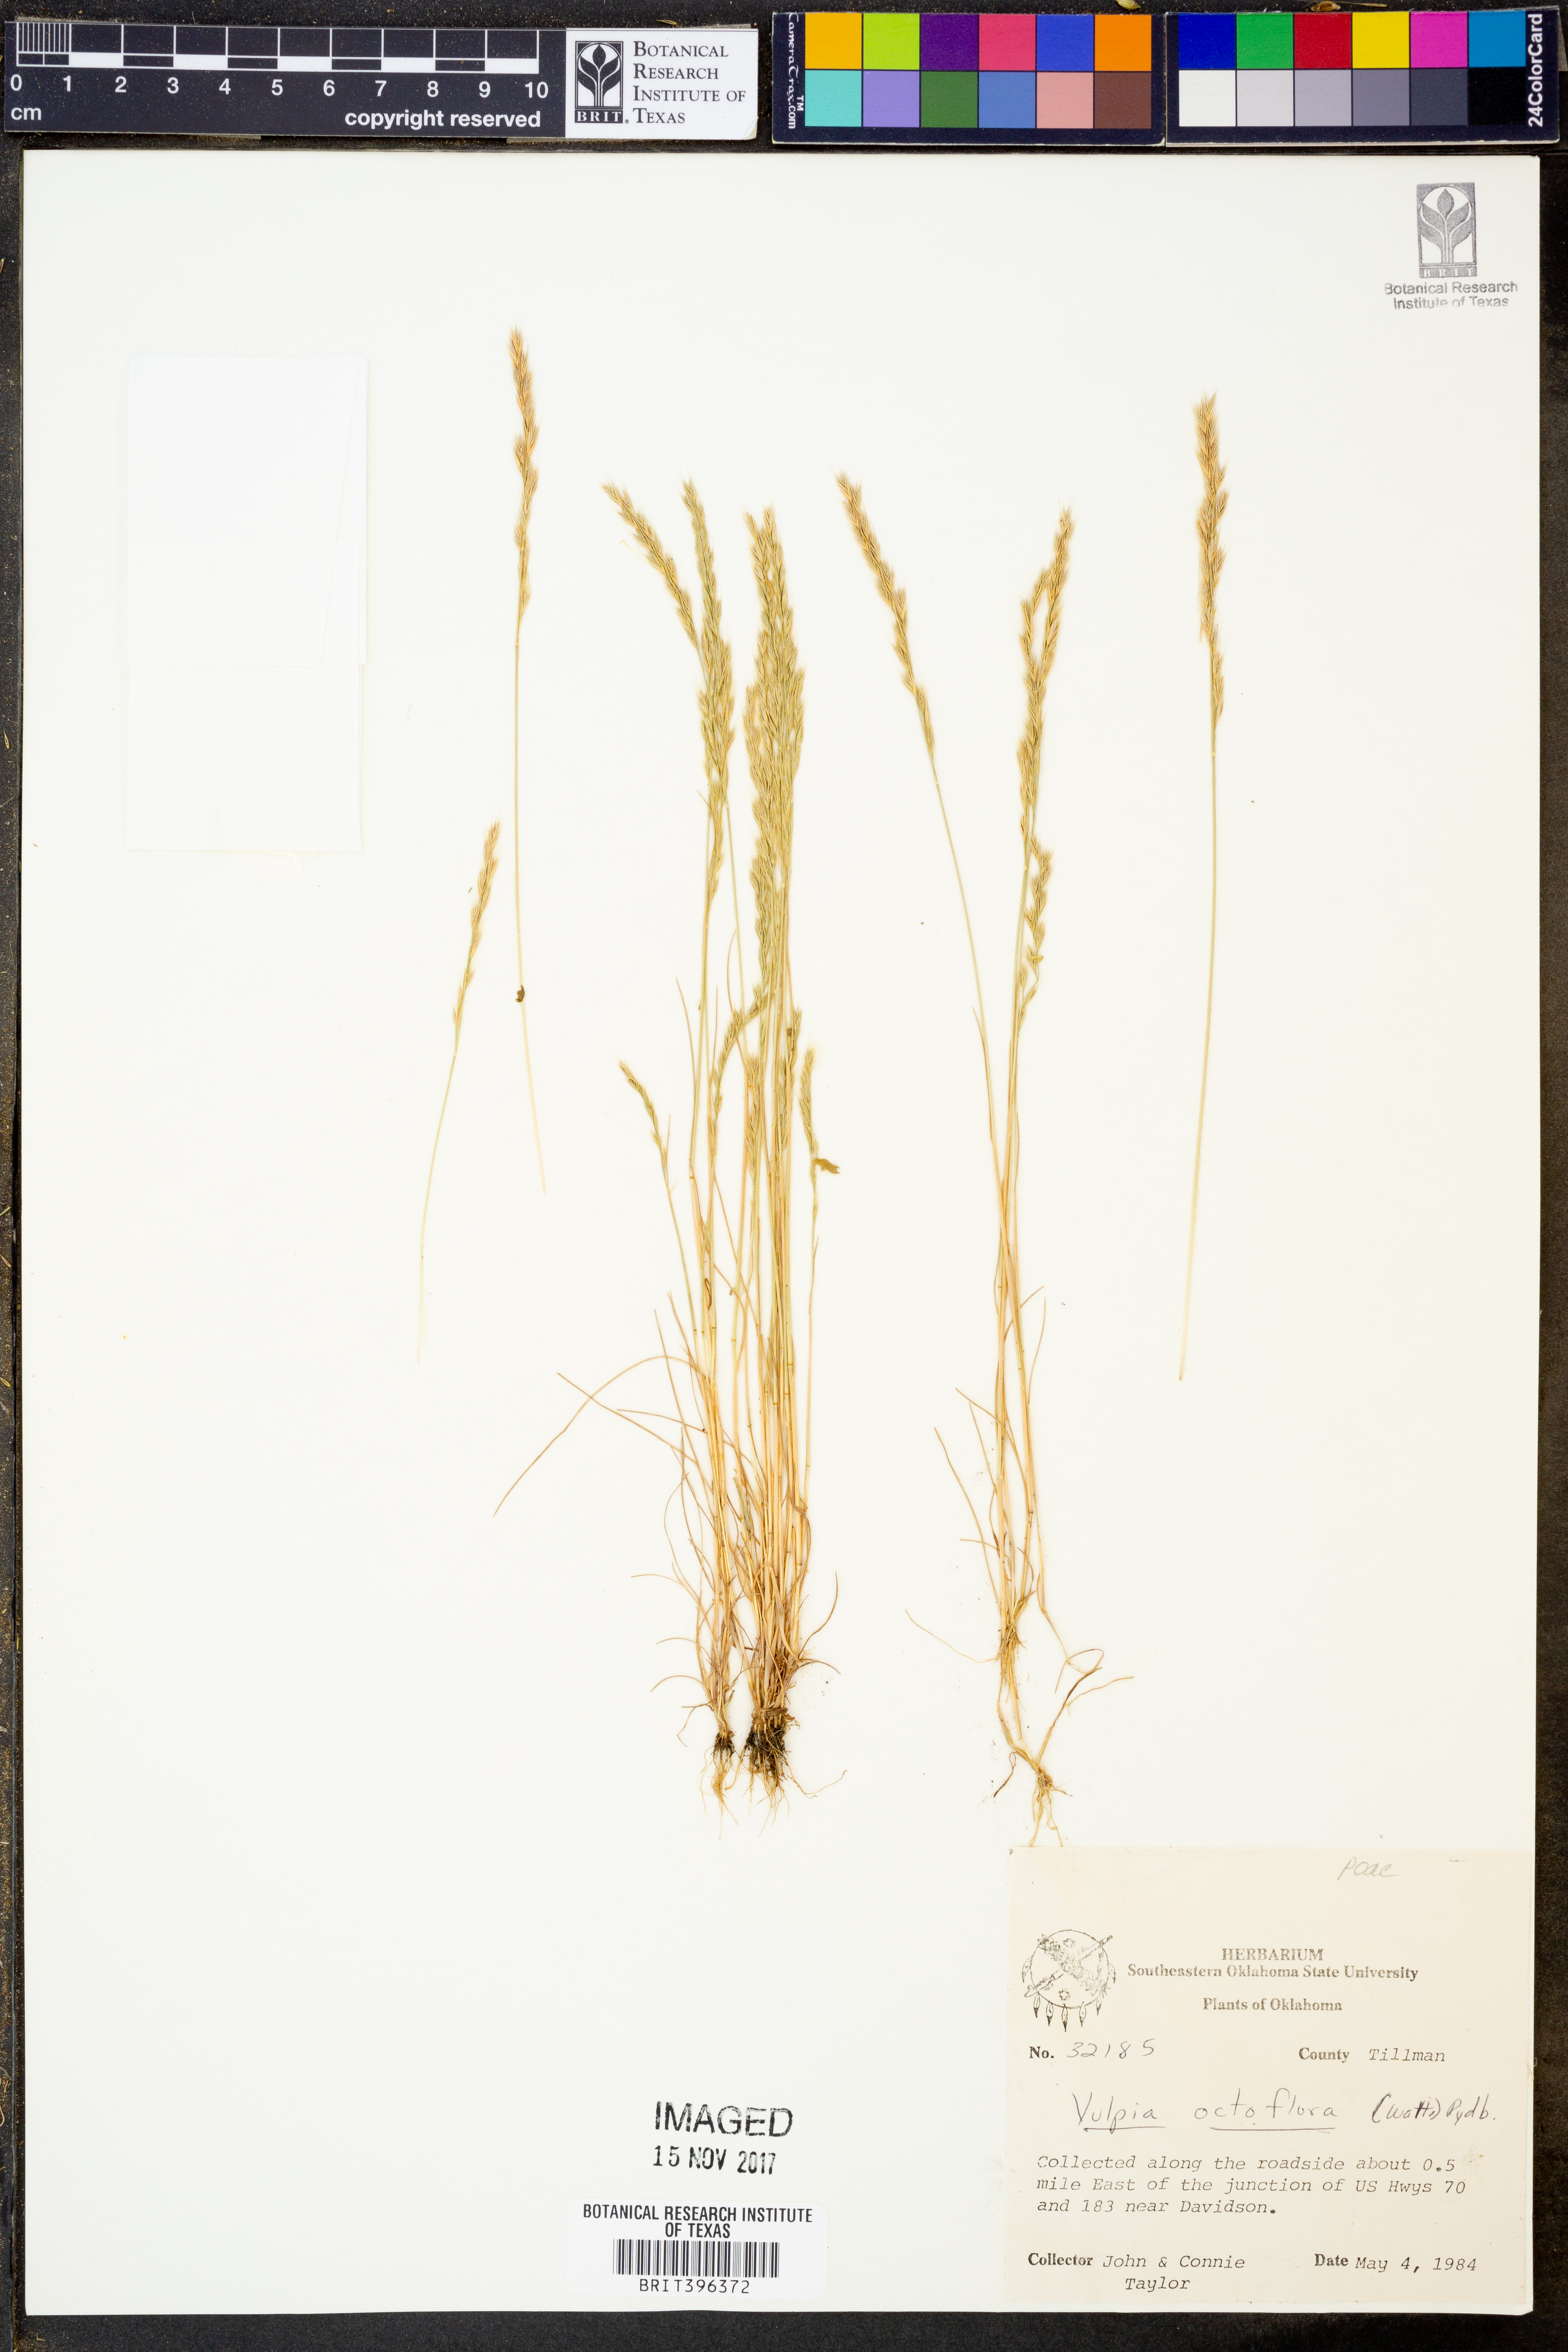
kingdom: Plantae
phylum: Tracheophyta
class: Liliopsida
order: Poales
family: Poaceae
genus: Festuca
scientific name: Festuca octoflora
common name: Sixweeks grass
